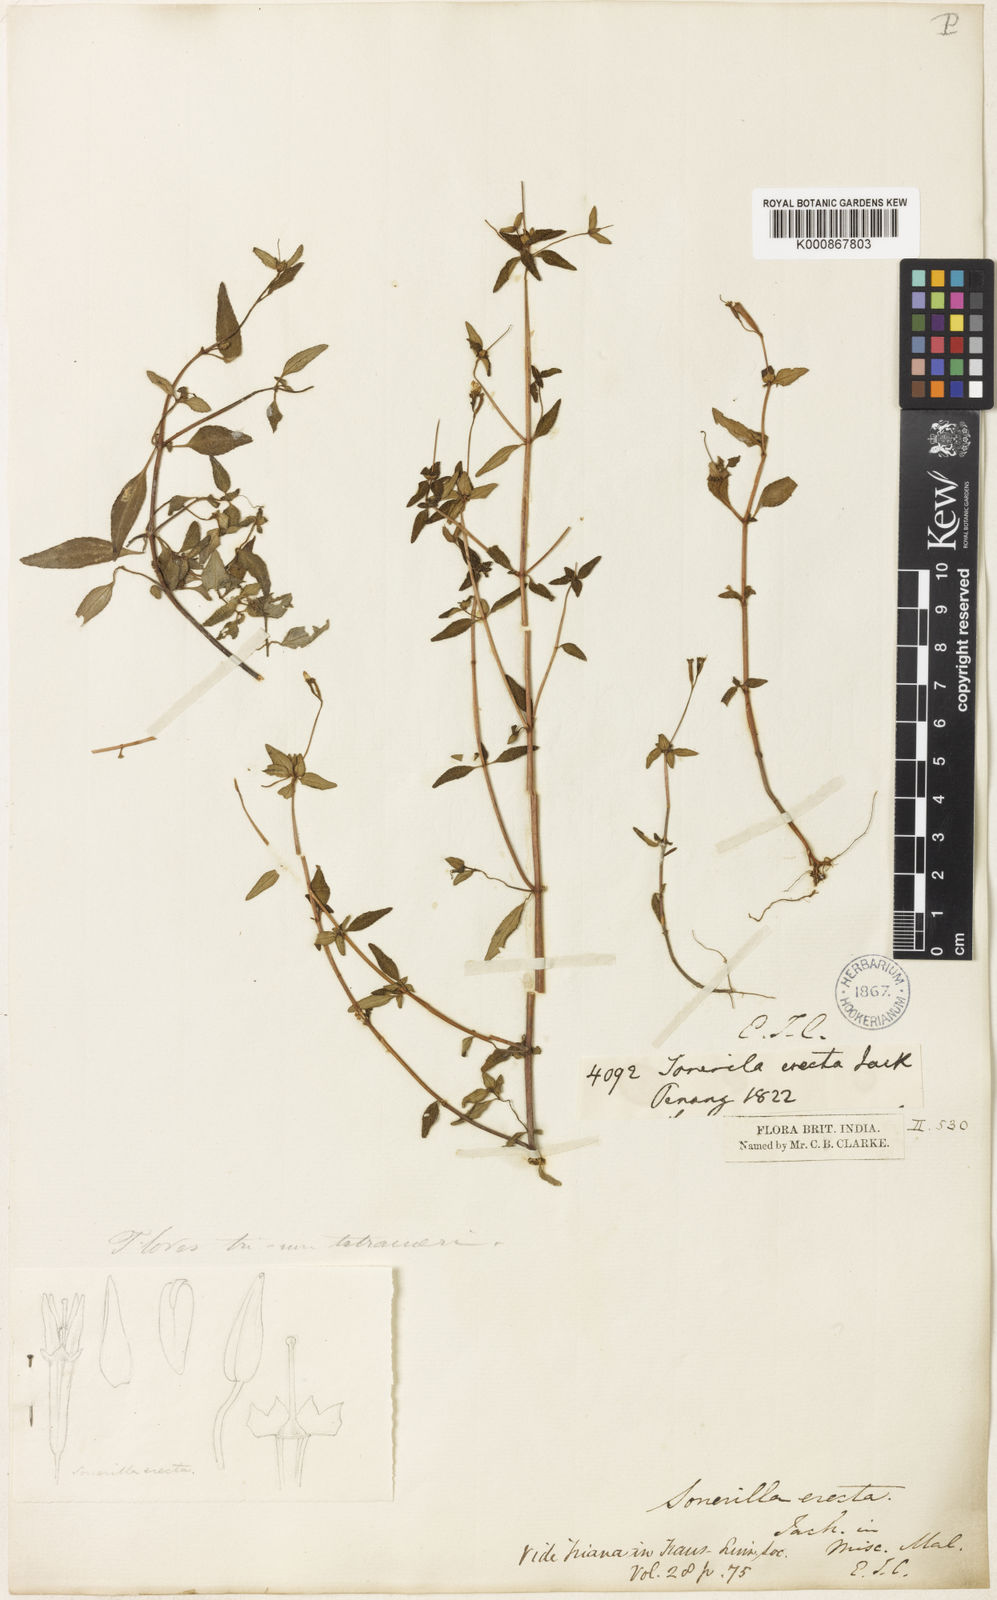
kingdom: Plantae
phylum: Tracheophyta
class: Magnoliopsida
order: Myrtales
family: Melastomataceae
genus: Sonerila
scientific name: Sonerila erecta
